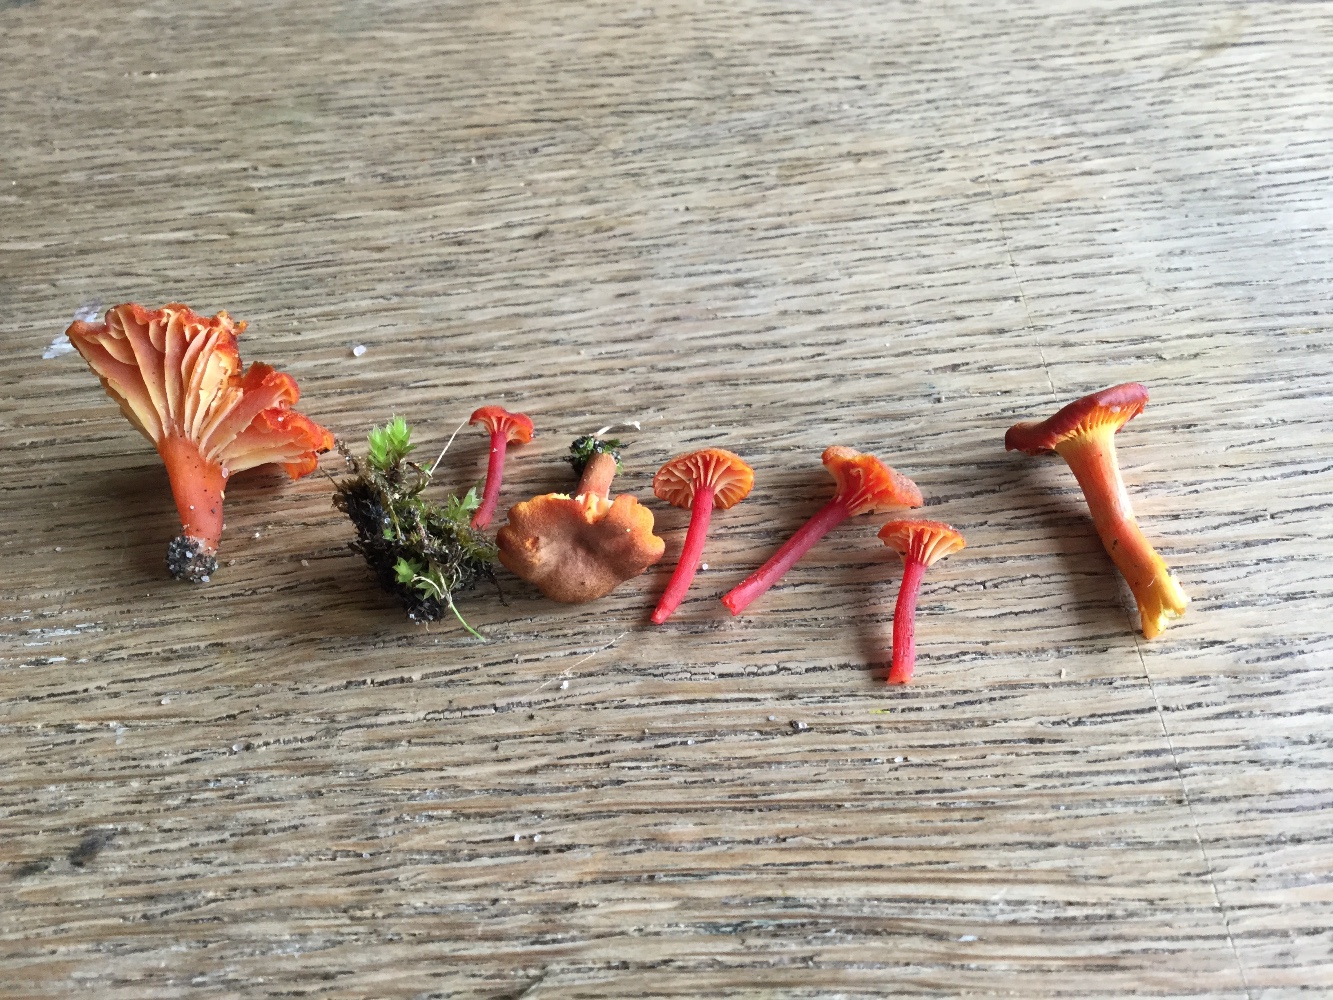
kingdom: Fungi
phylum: Basidiomycota
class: Agaricomycetes
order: Agaricales
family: Hygrophoraceae
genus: Hygrocybe
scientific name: Hygrocybe turunda
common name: sortskællet vokshat
